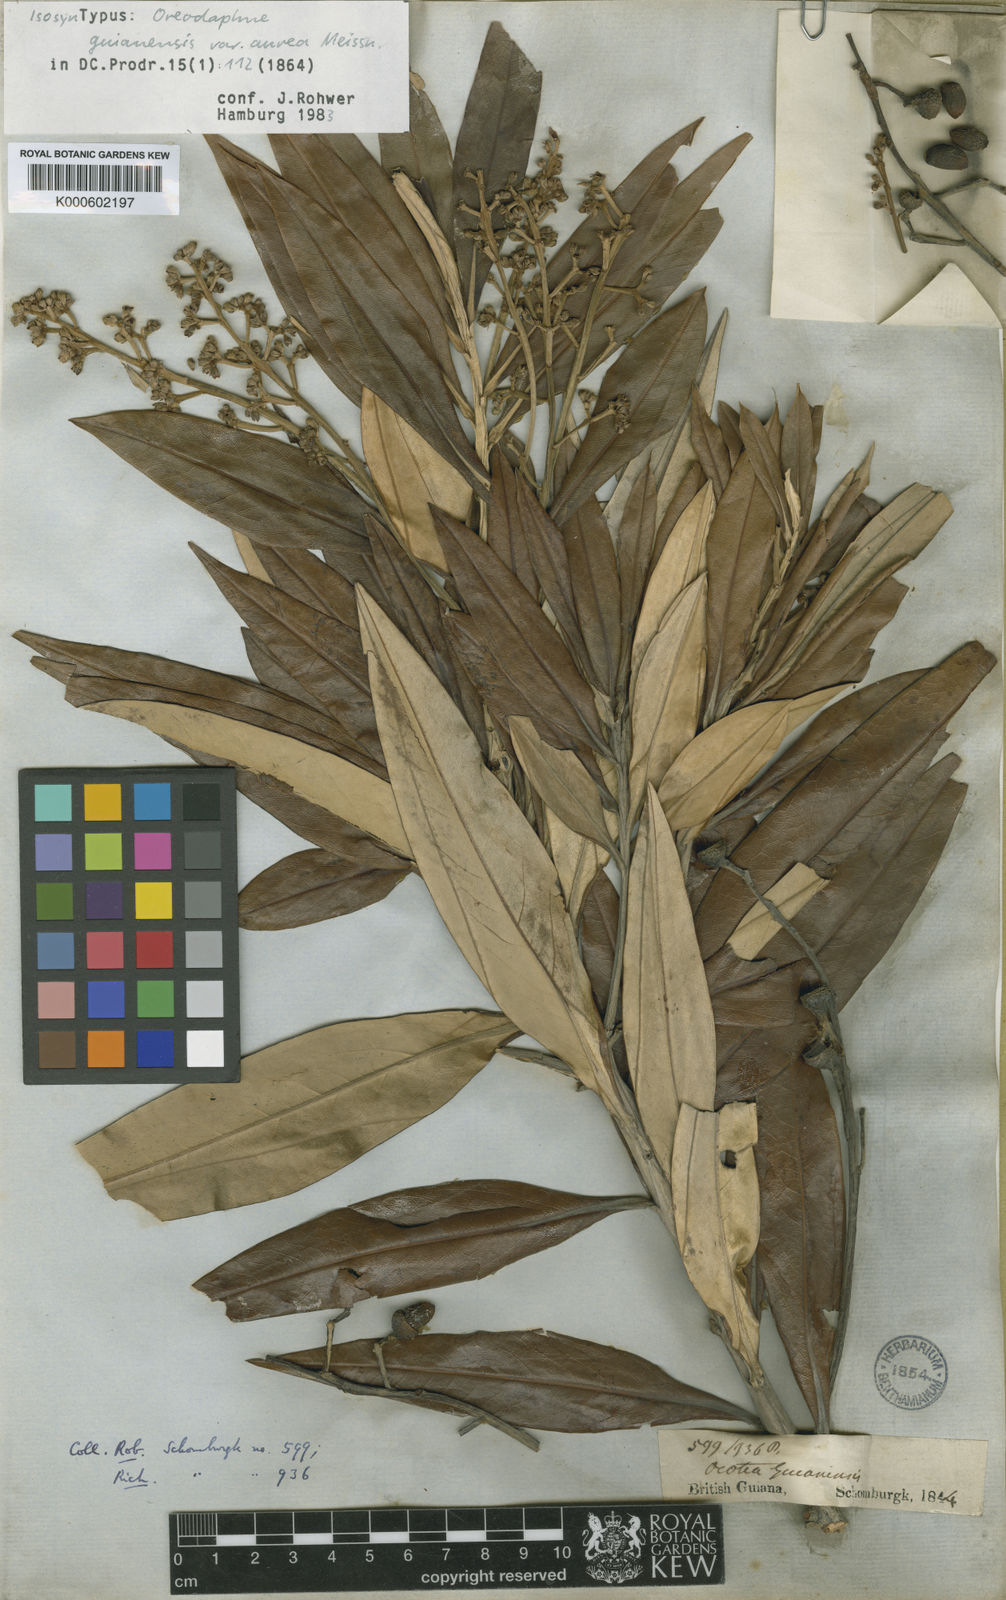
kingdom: Plantae
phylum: Tracheophyta
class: Magnoliopsida
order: Laurales
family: Lauraceae
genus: Ocotea
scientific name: Ocotea guianensis
